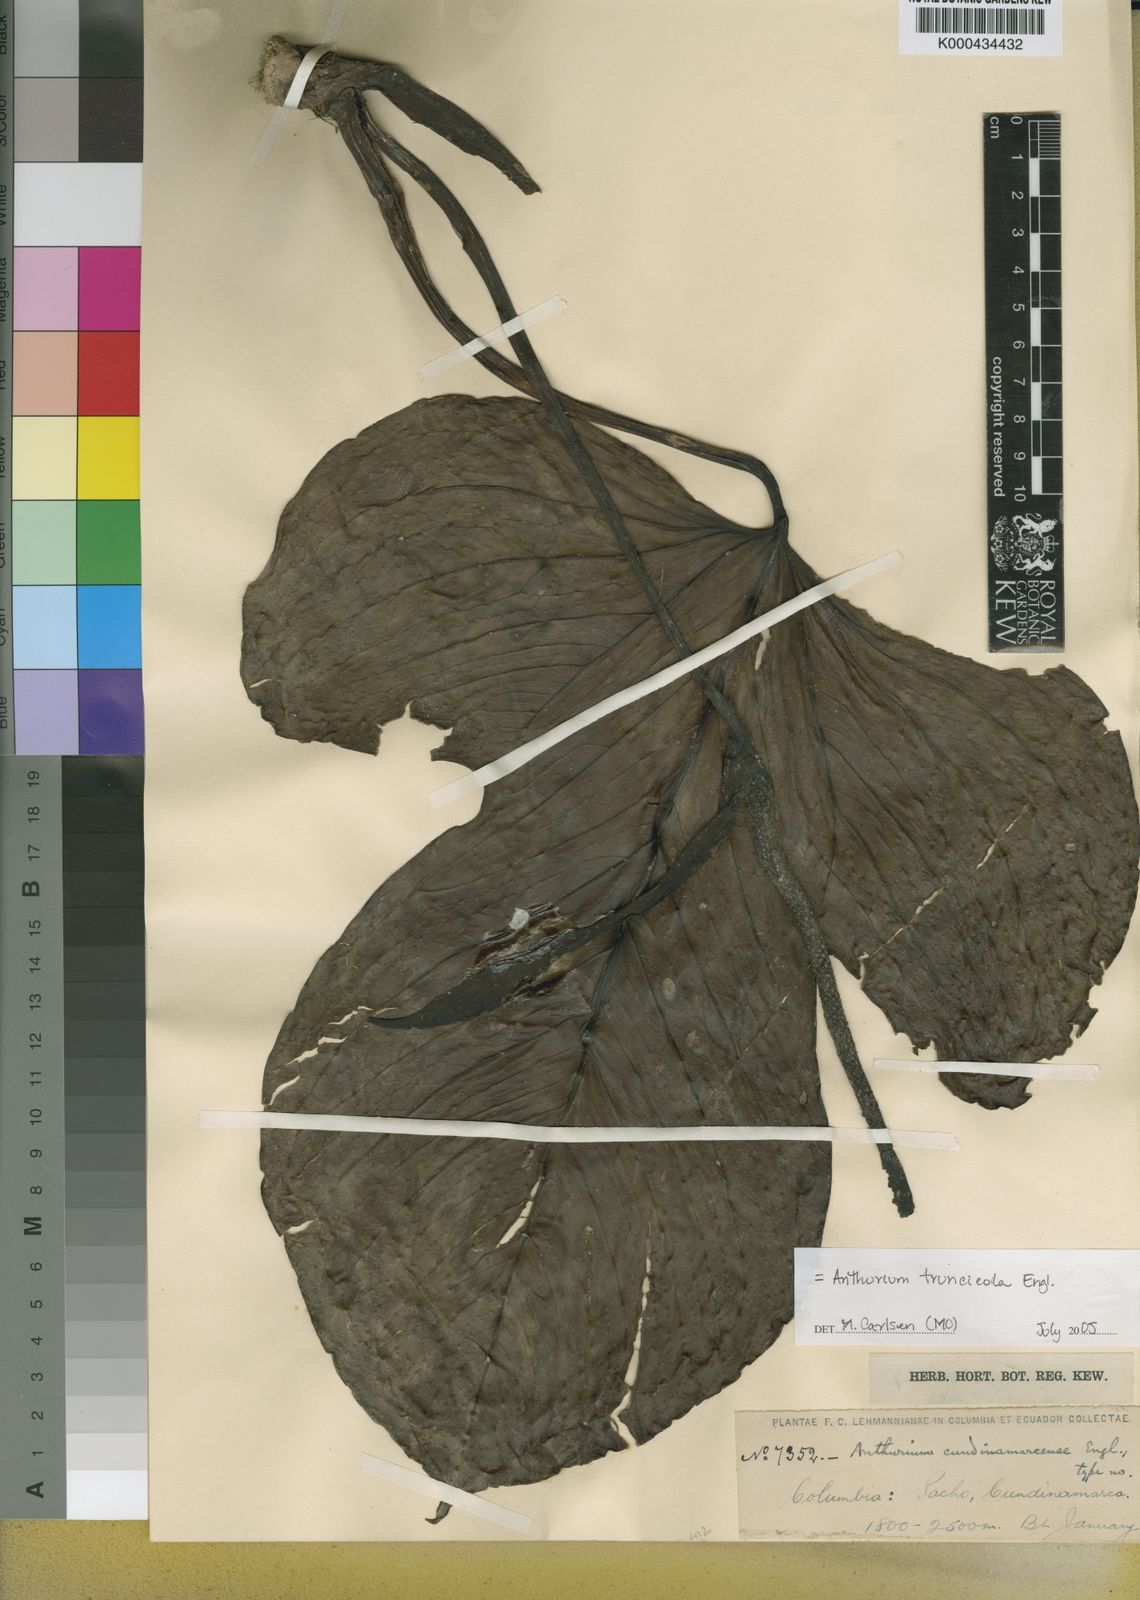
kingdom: Plantae
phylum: Tracheophyta
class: Liliopsida
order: Alismatales
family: Araceae
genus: Anthurium
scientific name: Anthurium
